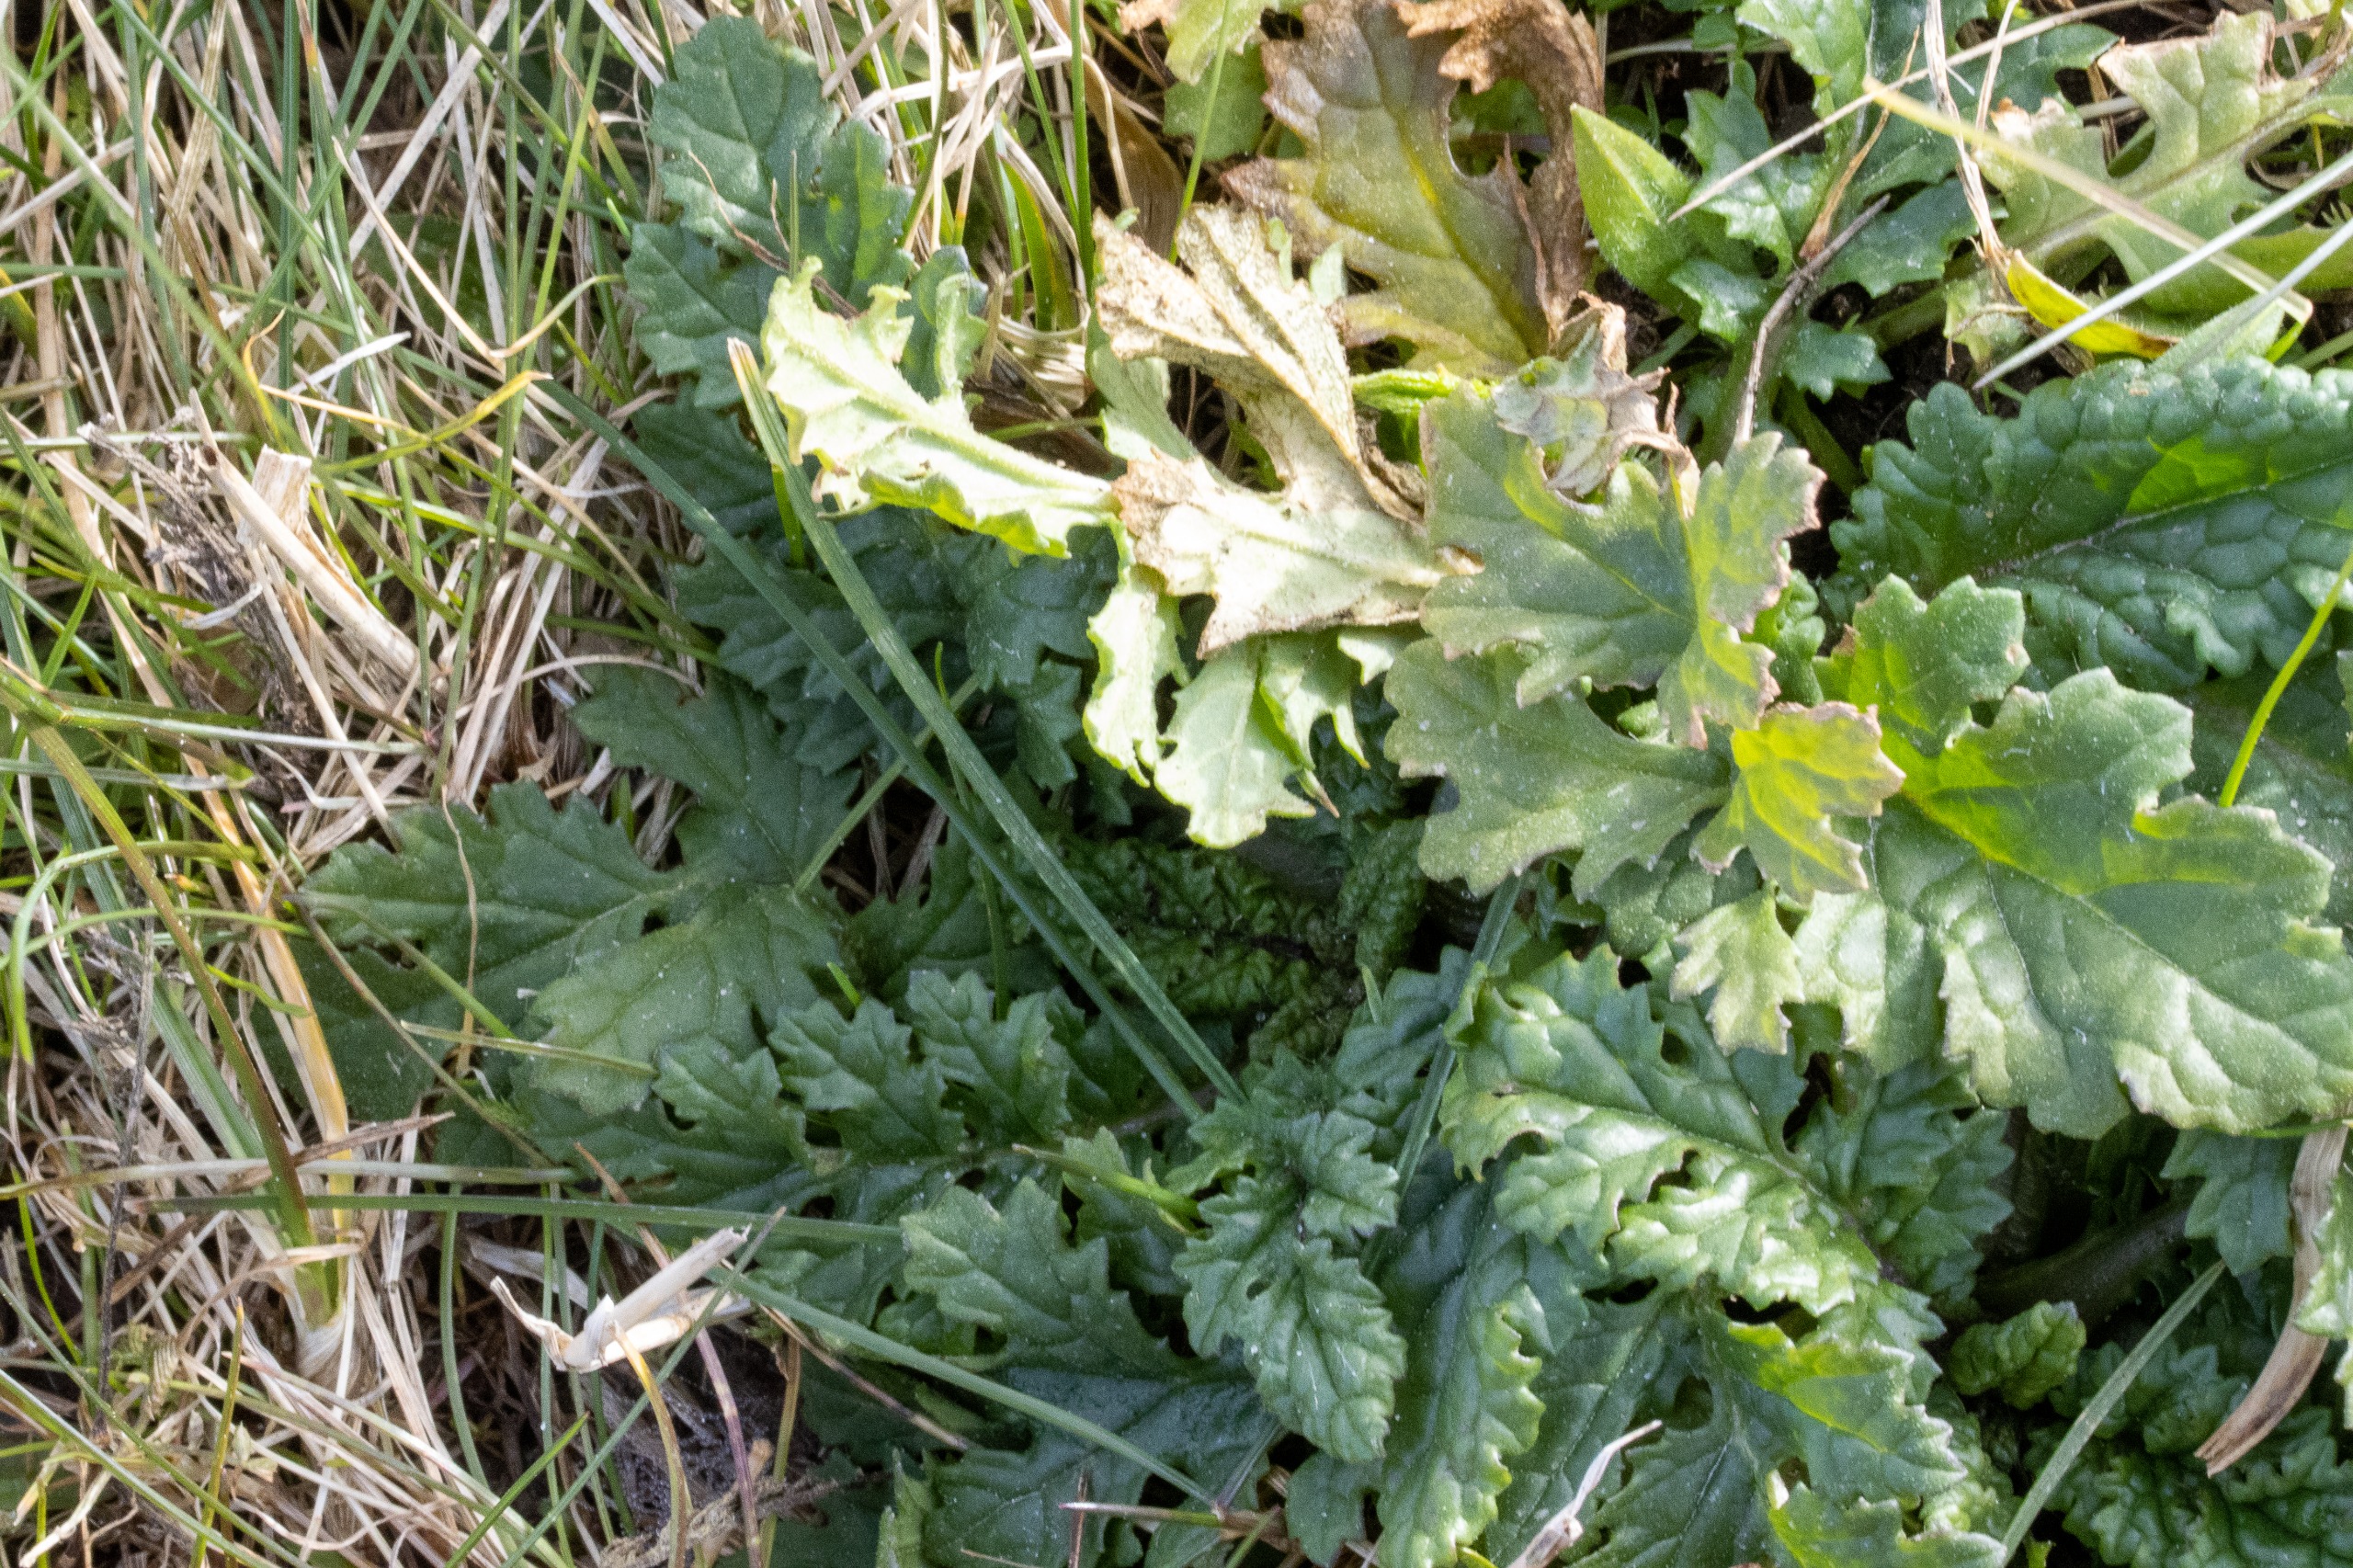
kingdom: Plantae
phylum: Tracheophyta
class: Magnoliopsida
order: Asterales
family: Asteraceae
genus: Jacobaea
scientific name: Jacobaea vulgaris
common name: Eng-brandbæger
